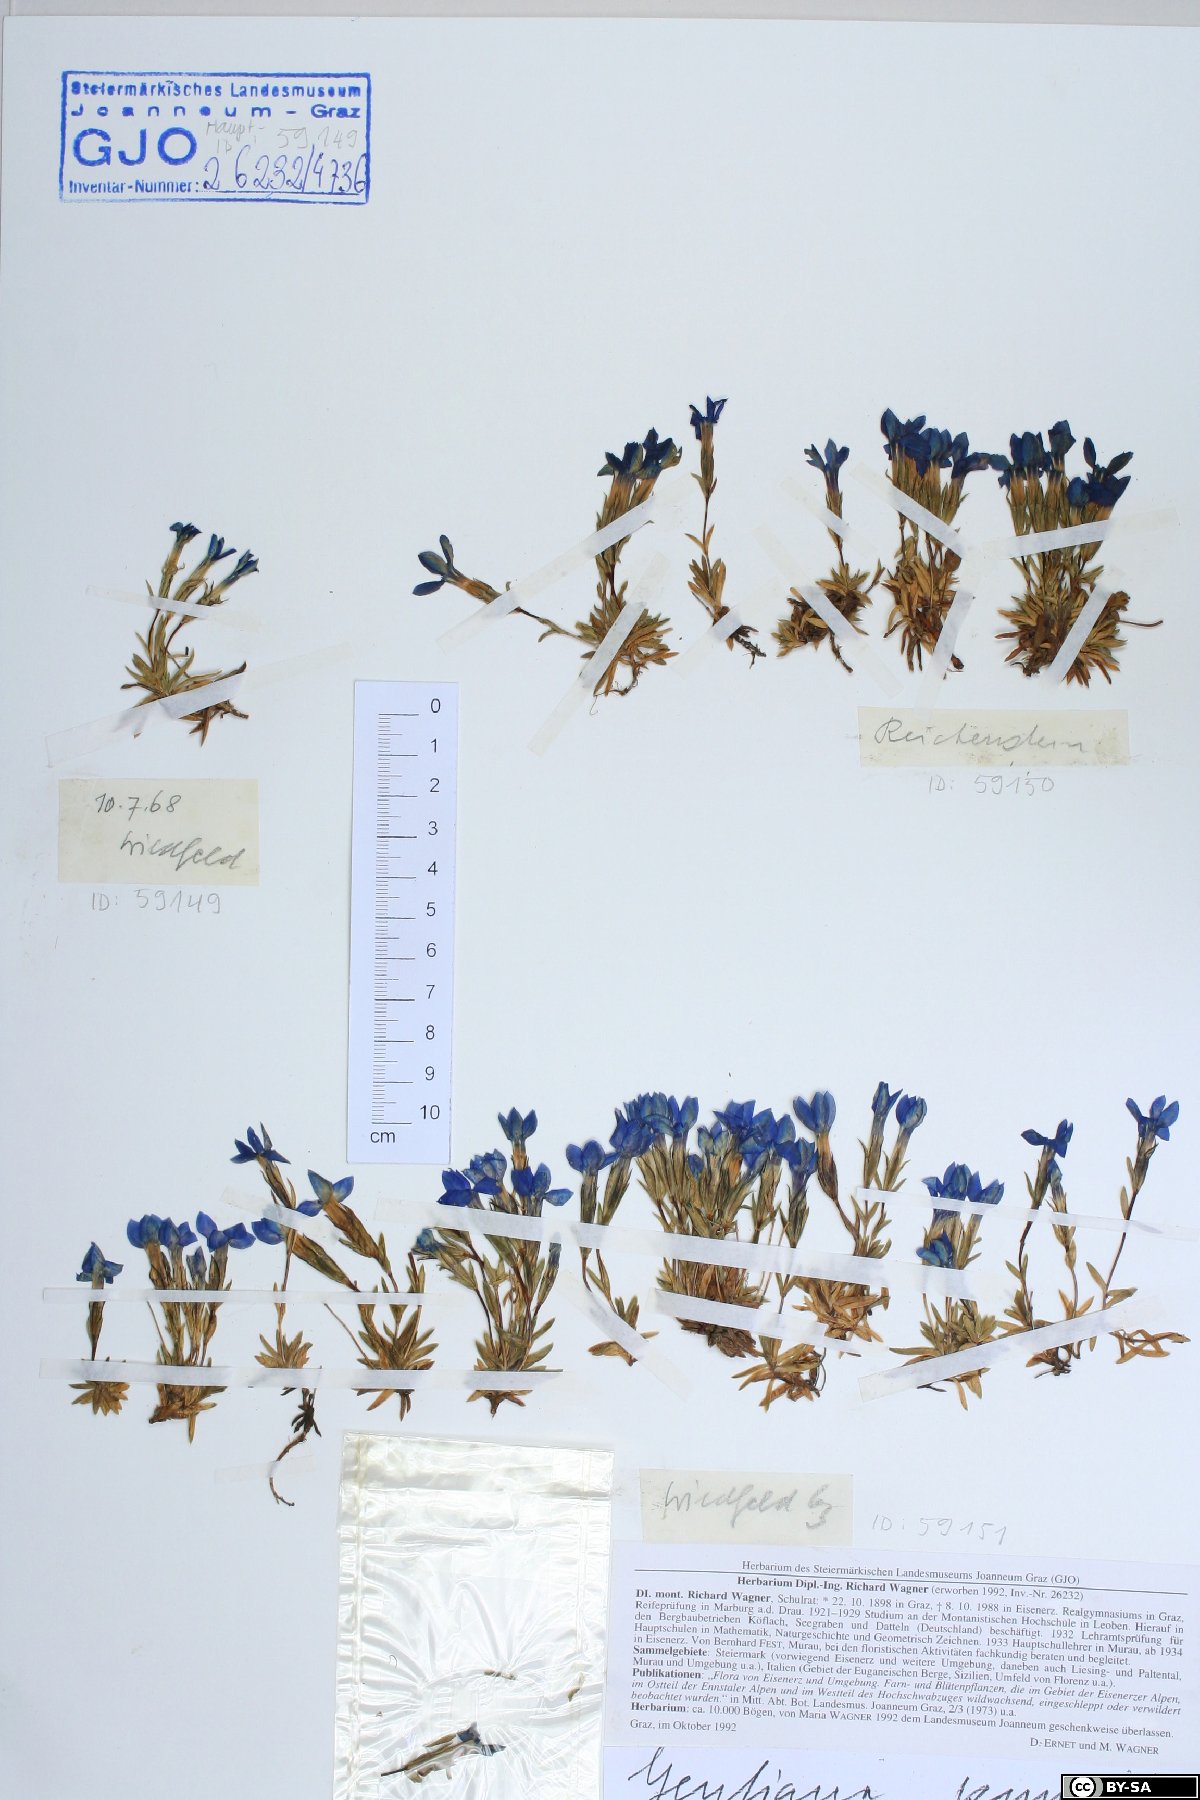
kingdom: Plantae
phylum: Tracheophyta
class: Magnoliopsida
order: Gentianales
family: Gentianaceae
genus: Gentiana
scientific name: Gentiana pumila
